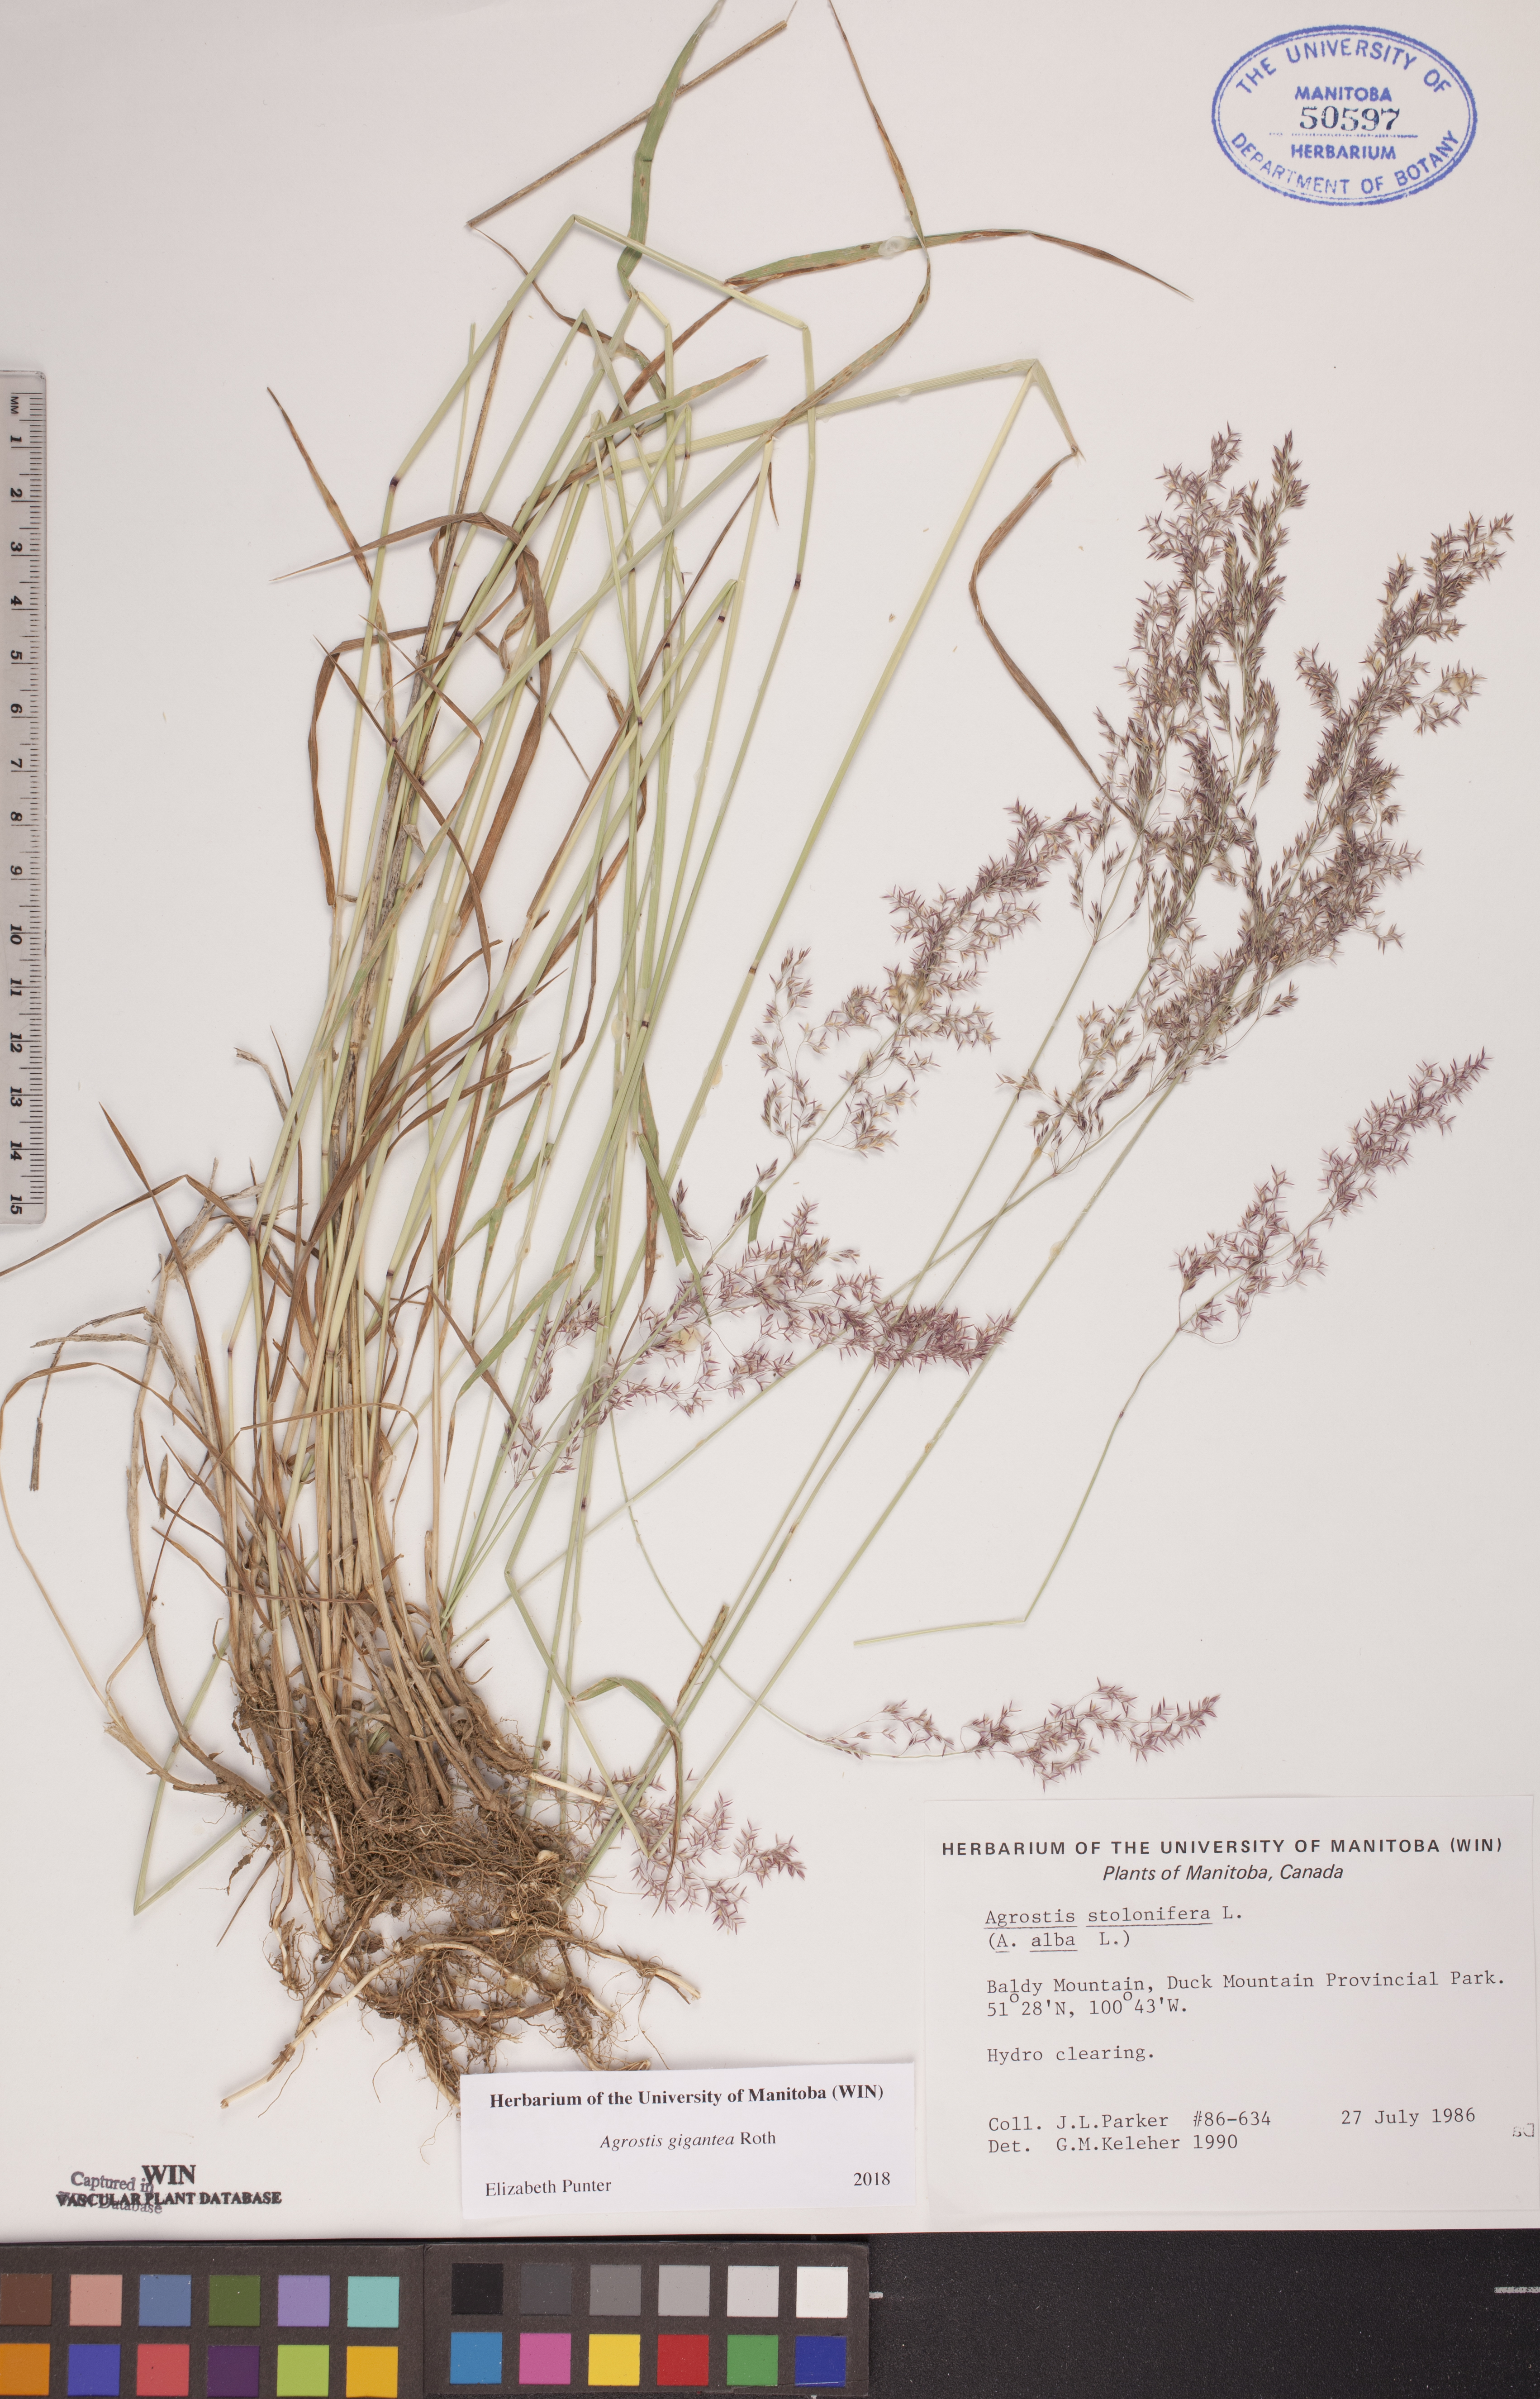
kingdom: Plantae
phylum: Tracheophyta
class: Liliopsida
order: Poales
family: Poaceae
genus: Agrostis
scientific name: Agrostis gigantea
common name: Black bent
